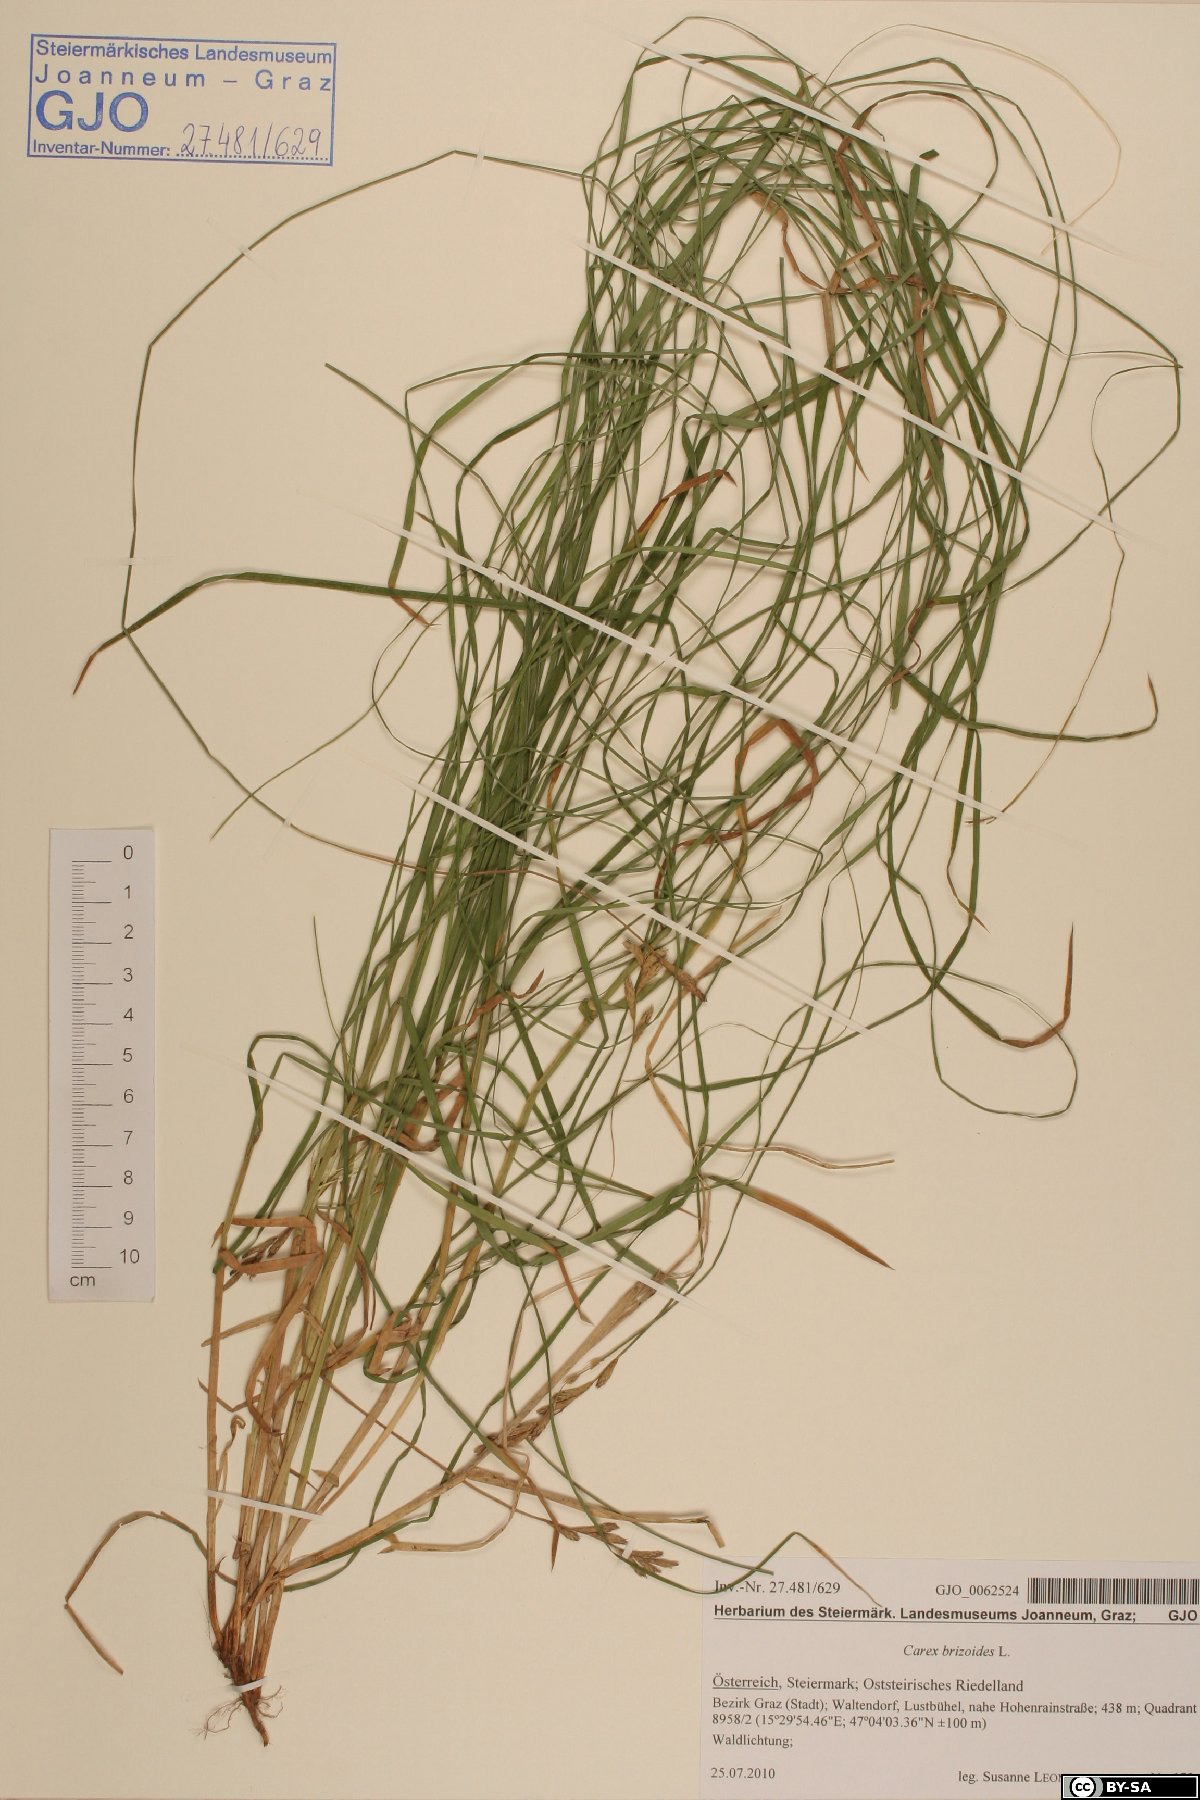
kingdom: Plantae
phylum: Tracheophyta
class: Liliopsida
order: Poales
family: Cyperaceae
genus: Carex
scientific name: Carex brizoides
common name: Quaking-grass sedge
